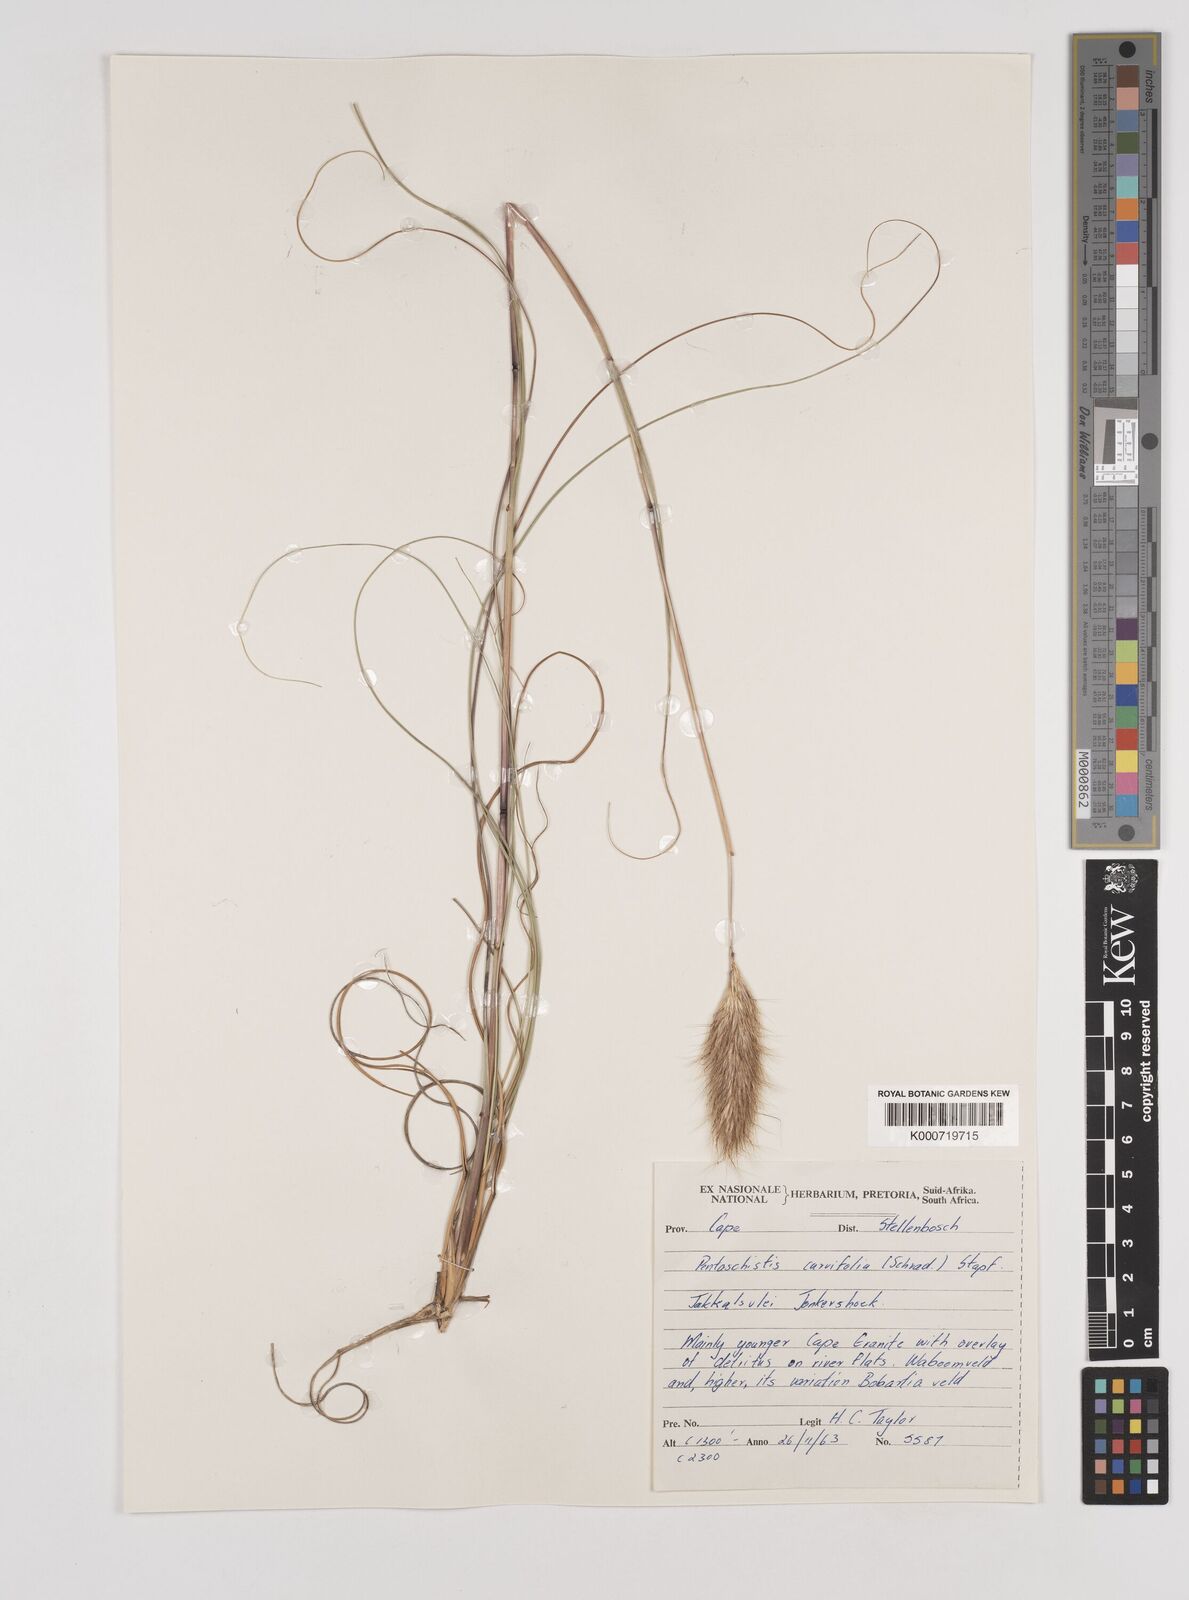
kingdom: Plantae
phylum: Tracheophyta
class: Liliopsida
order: Poales
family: Poaceae
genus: Pentameris
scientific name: Pentameris curvifolia
